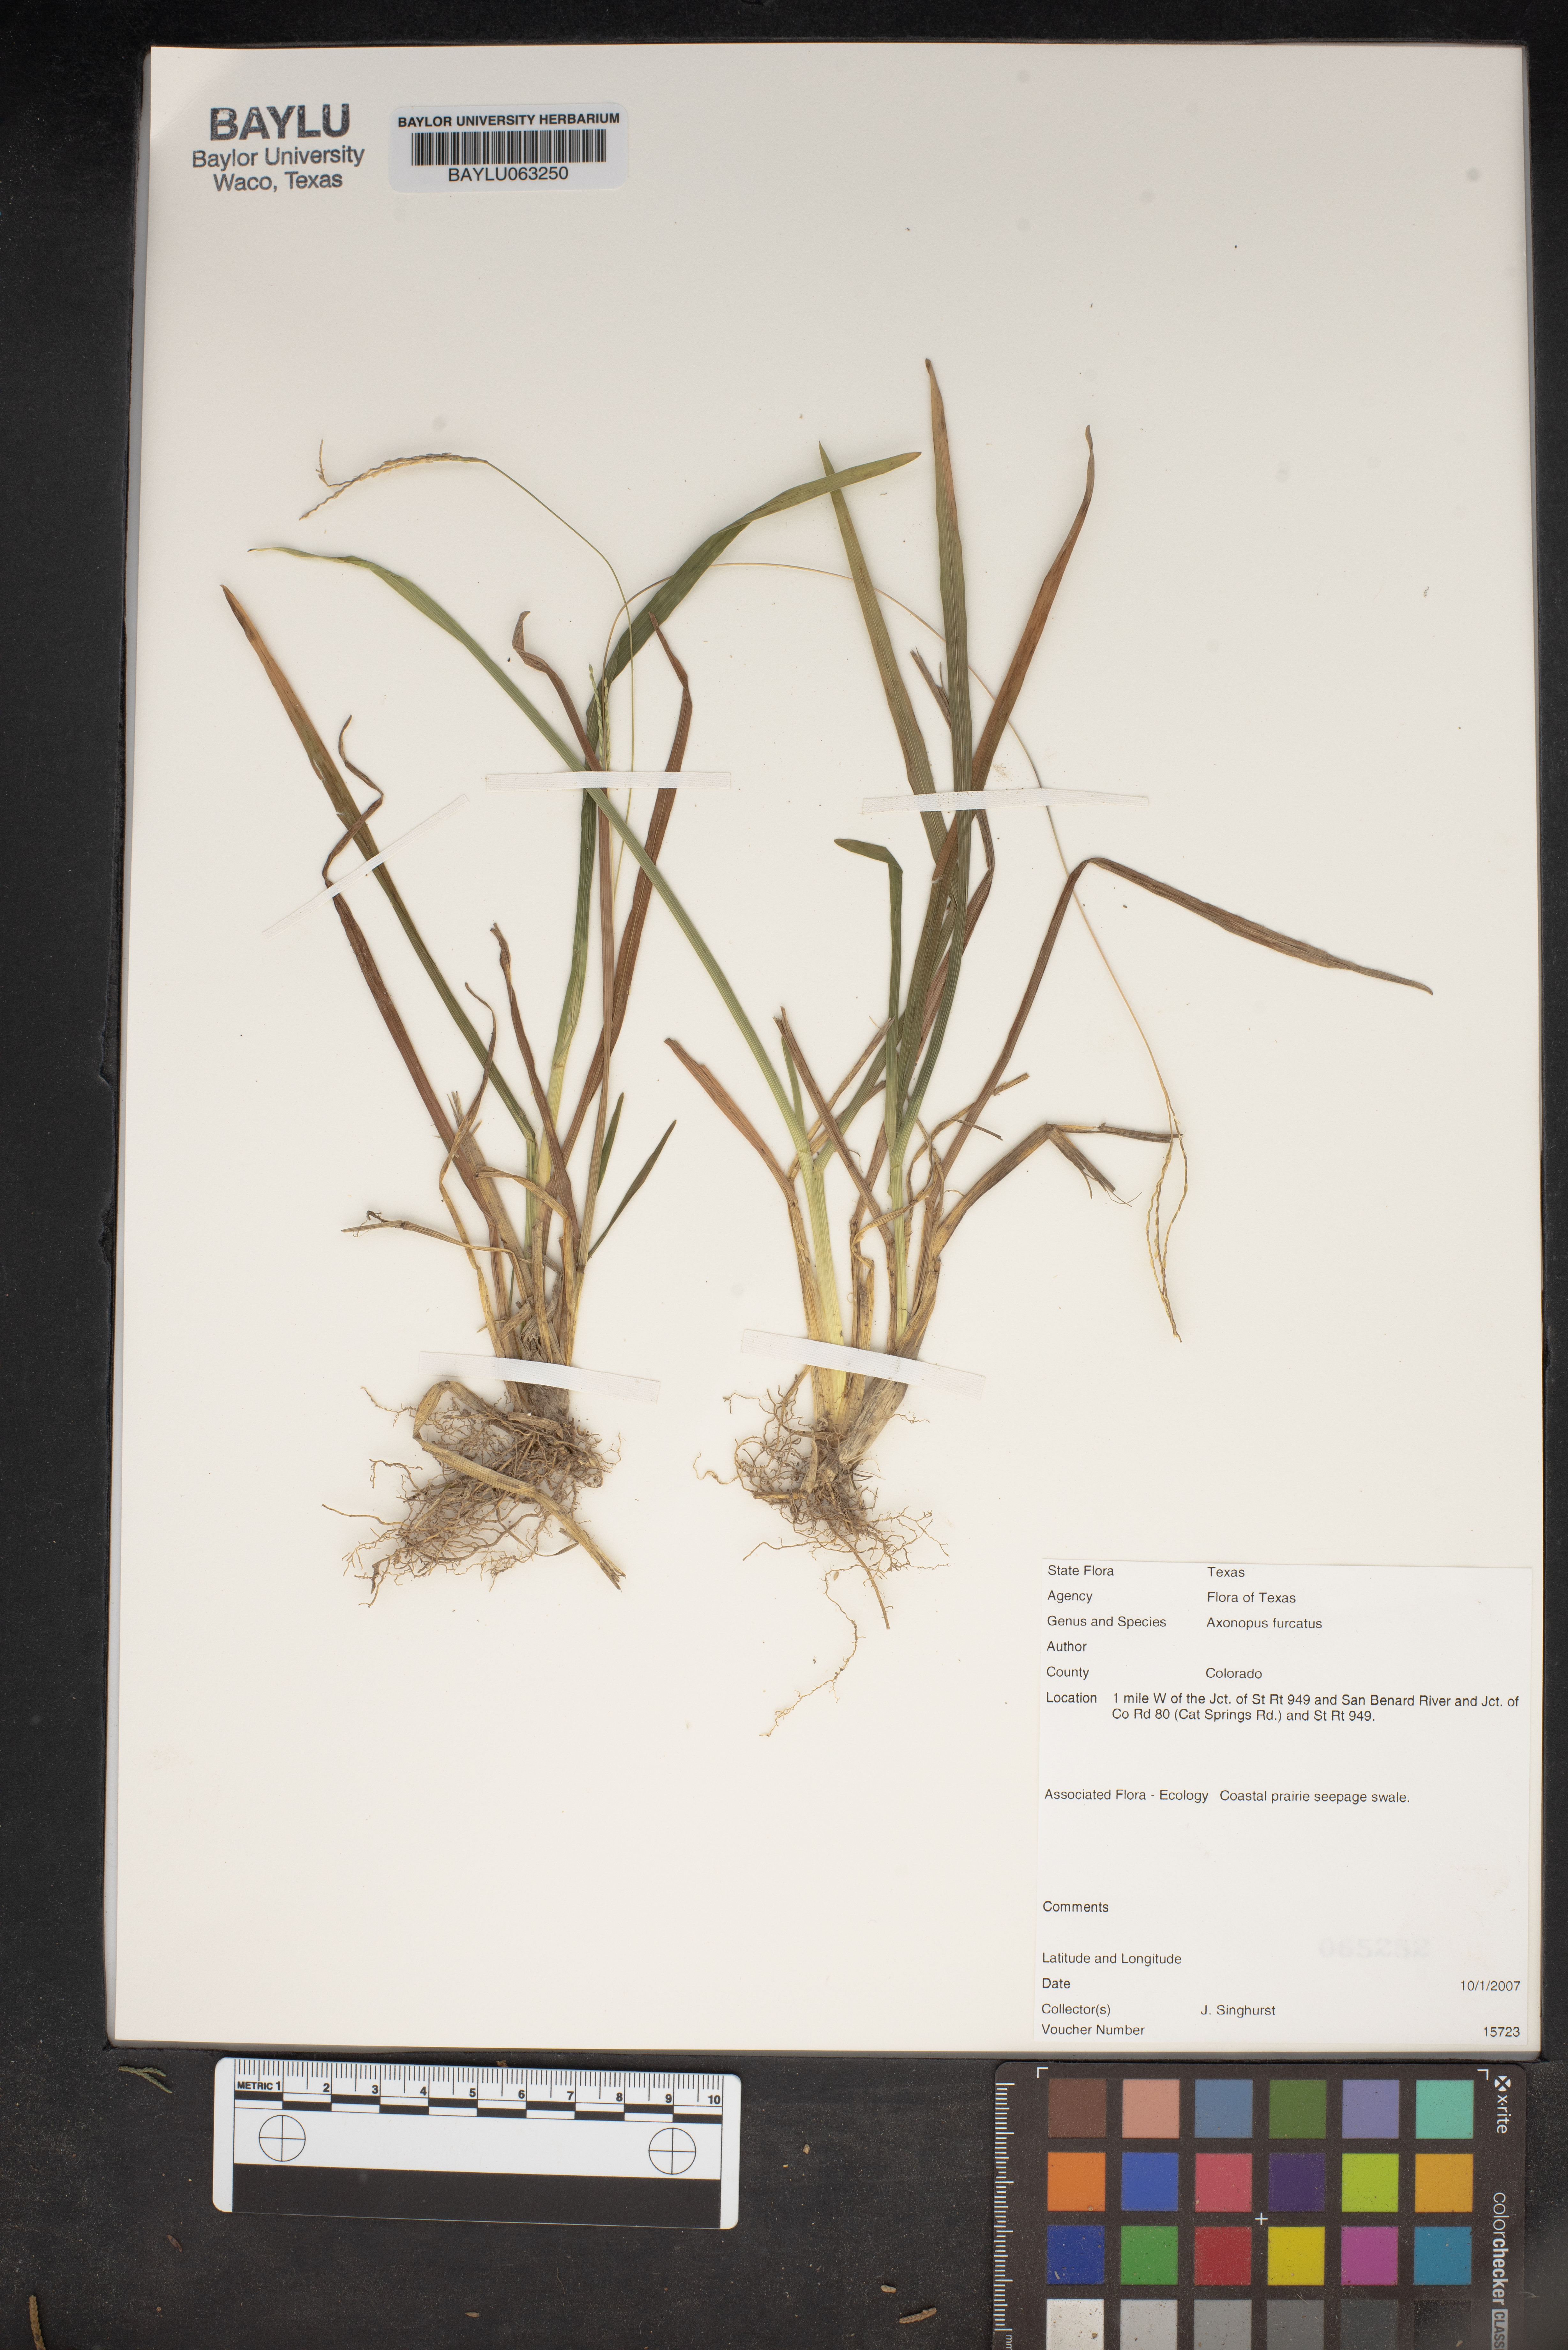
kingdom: Plantae
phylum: Tracheophyta
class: Liliopsida
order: Poales
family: Poaceae
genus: Axonopus
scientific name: Axonopus furcatus
